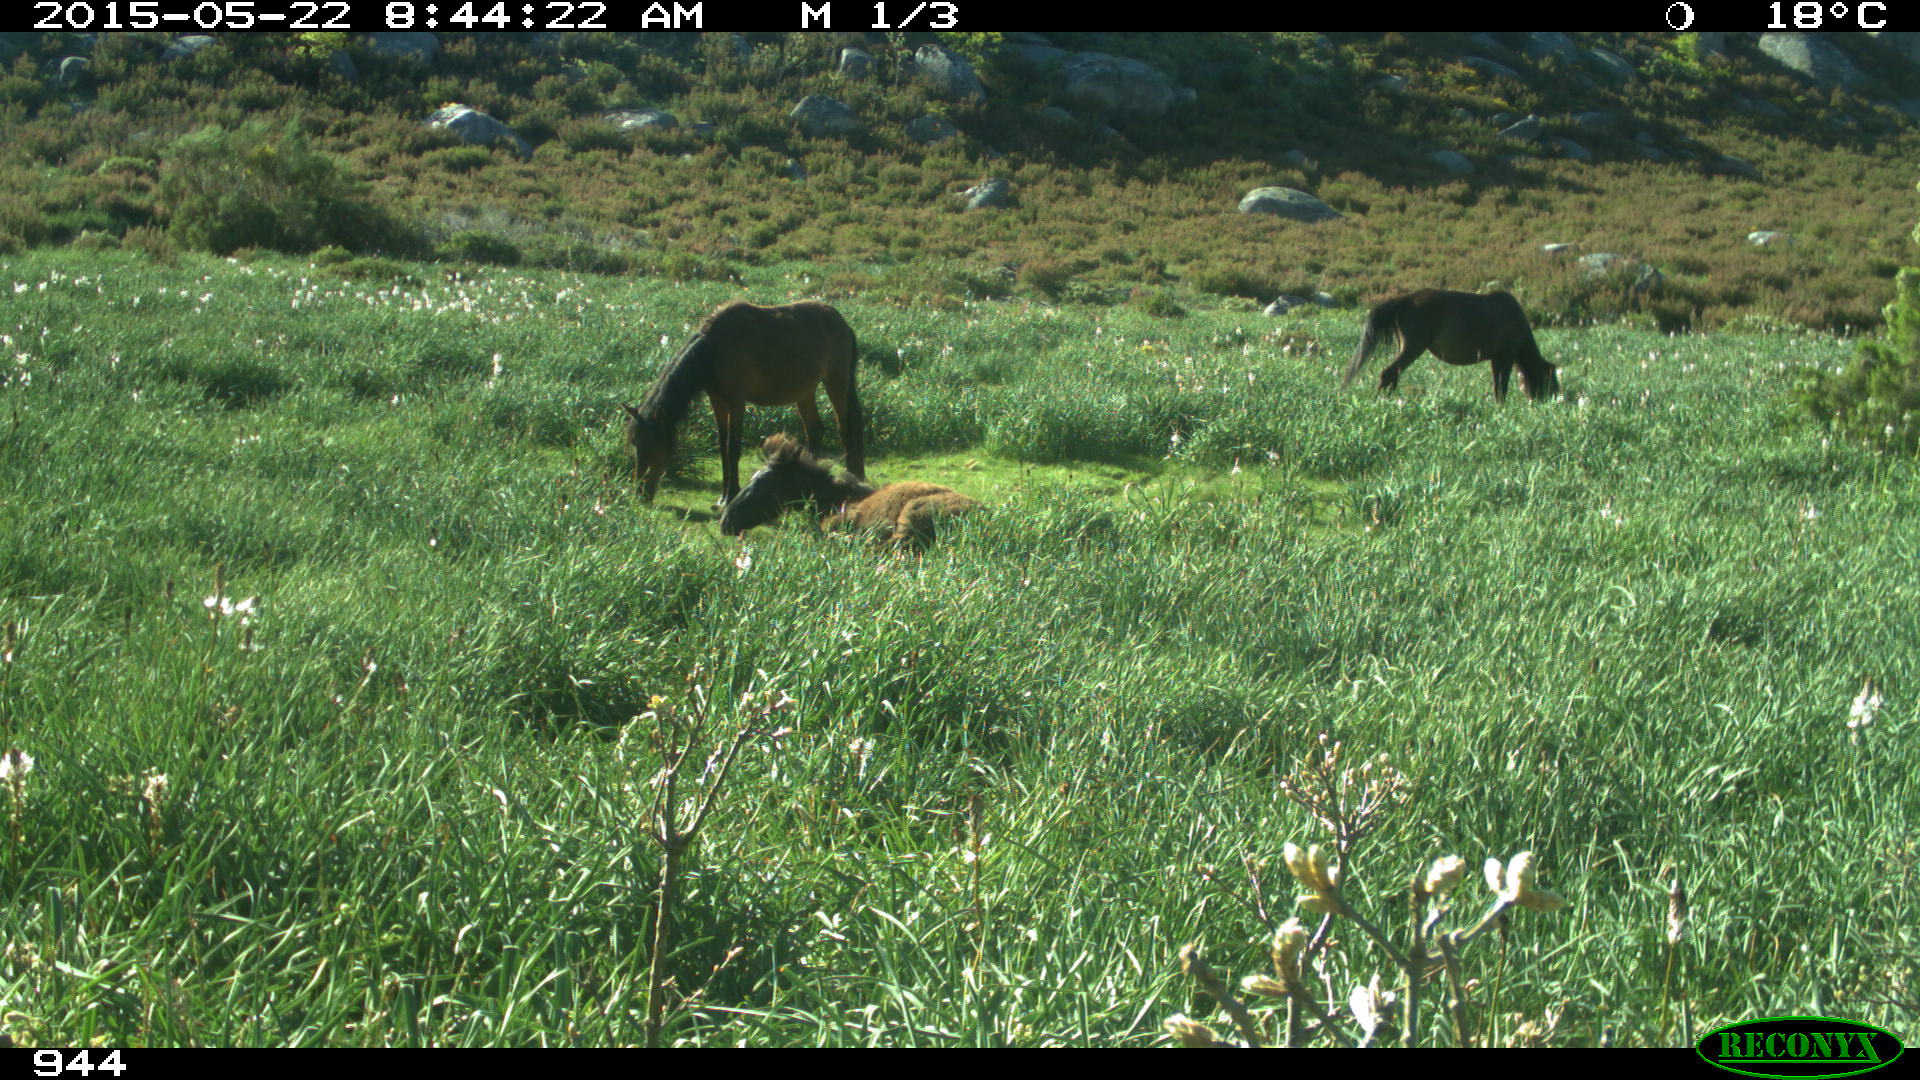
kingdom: Animalia
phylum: Chordata
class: Mammalia
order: Perissodactyla
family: Equidae
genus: Equus
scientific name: Equus caballus
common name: Horse
